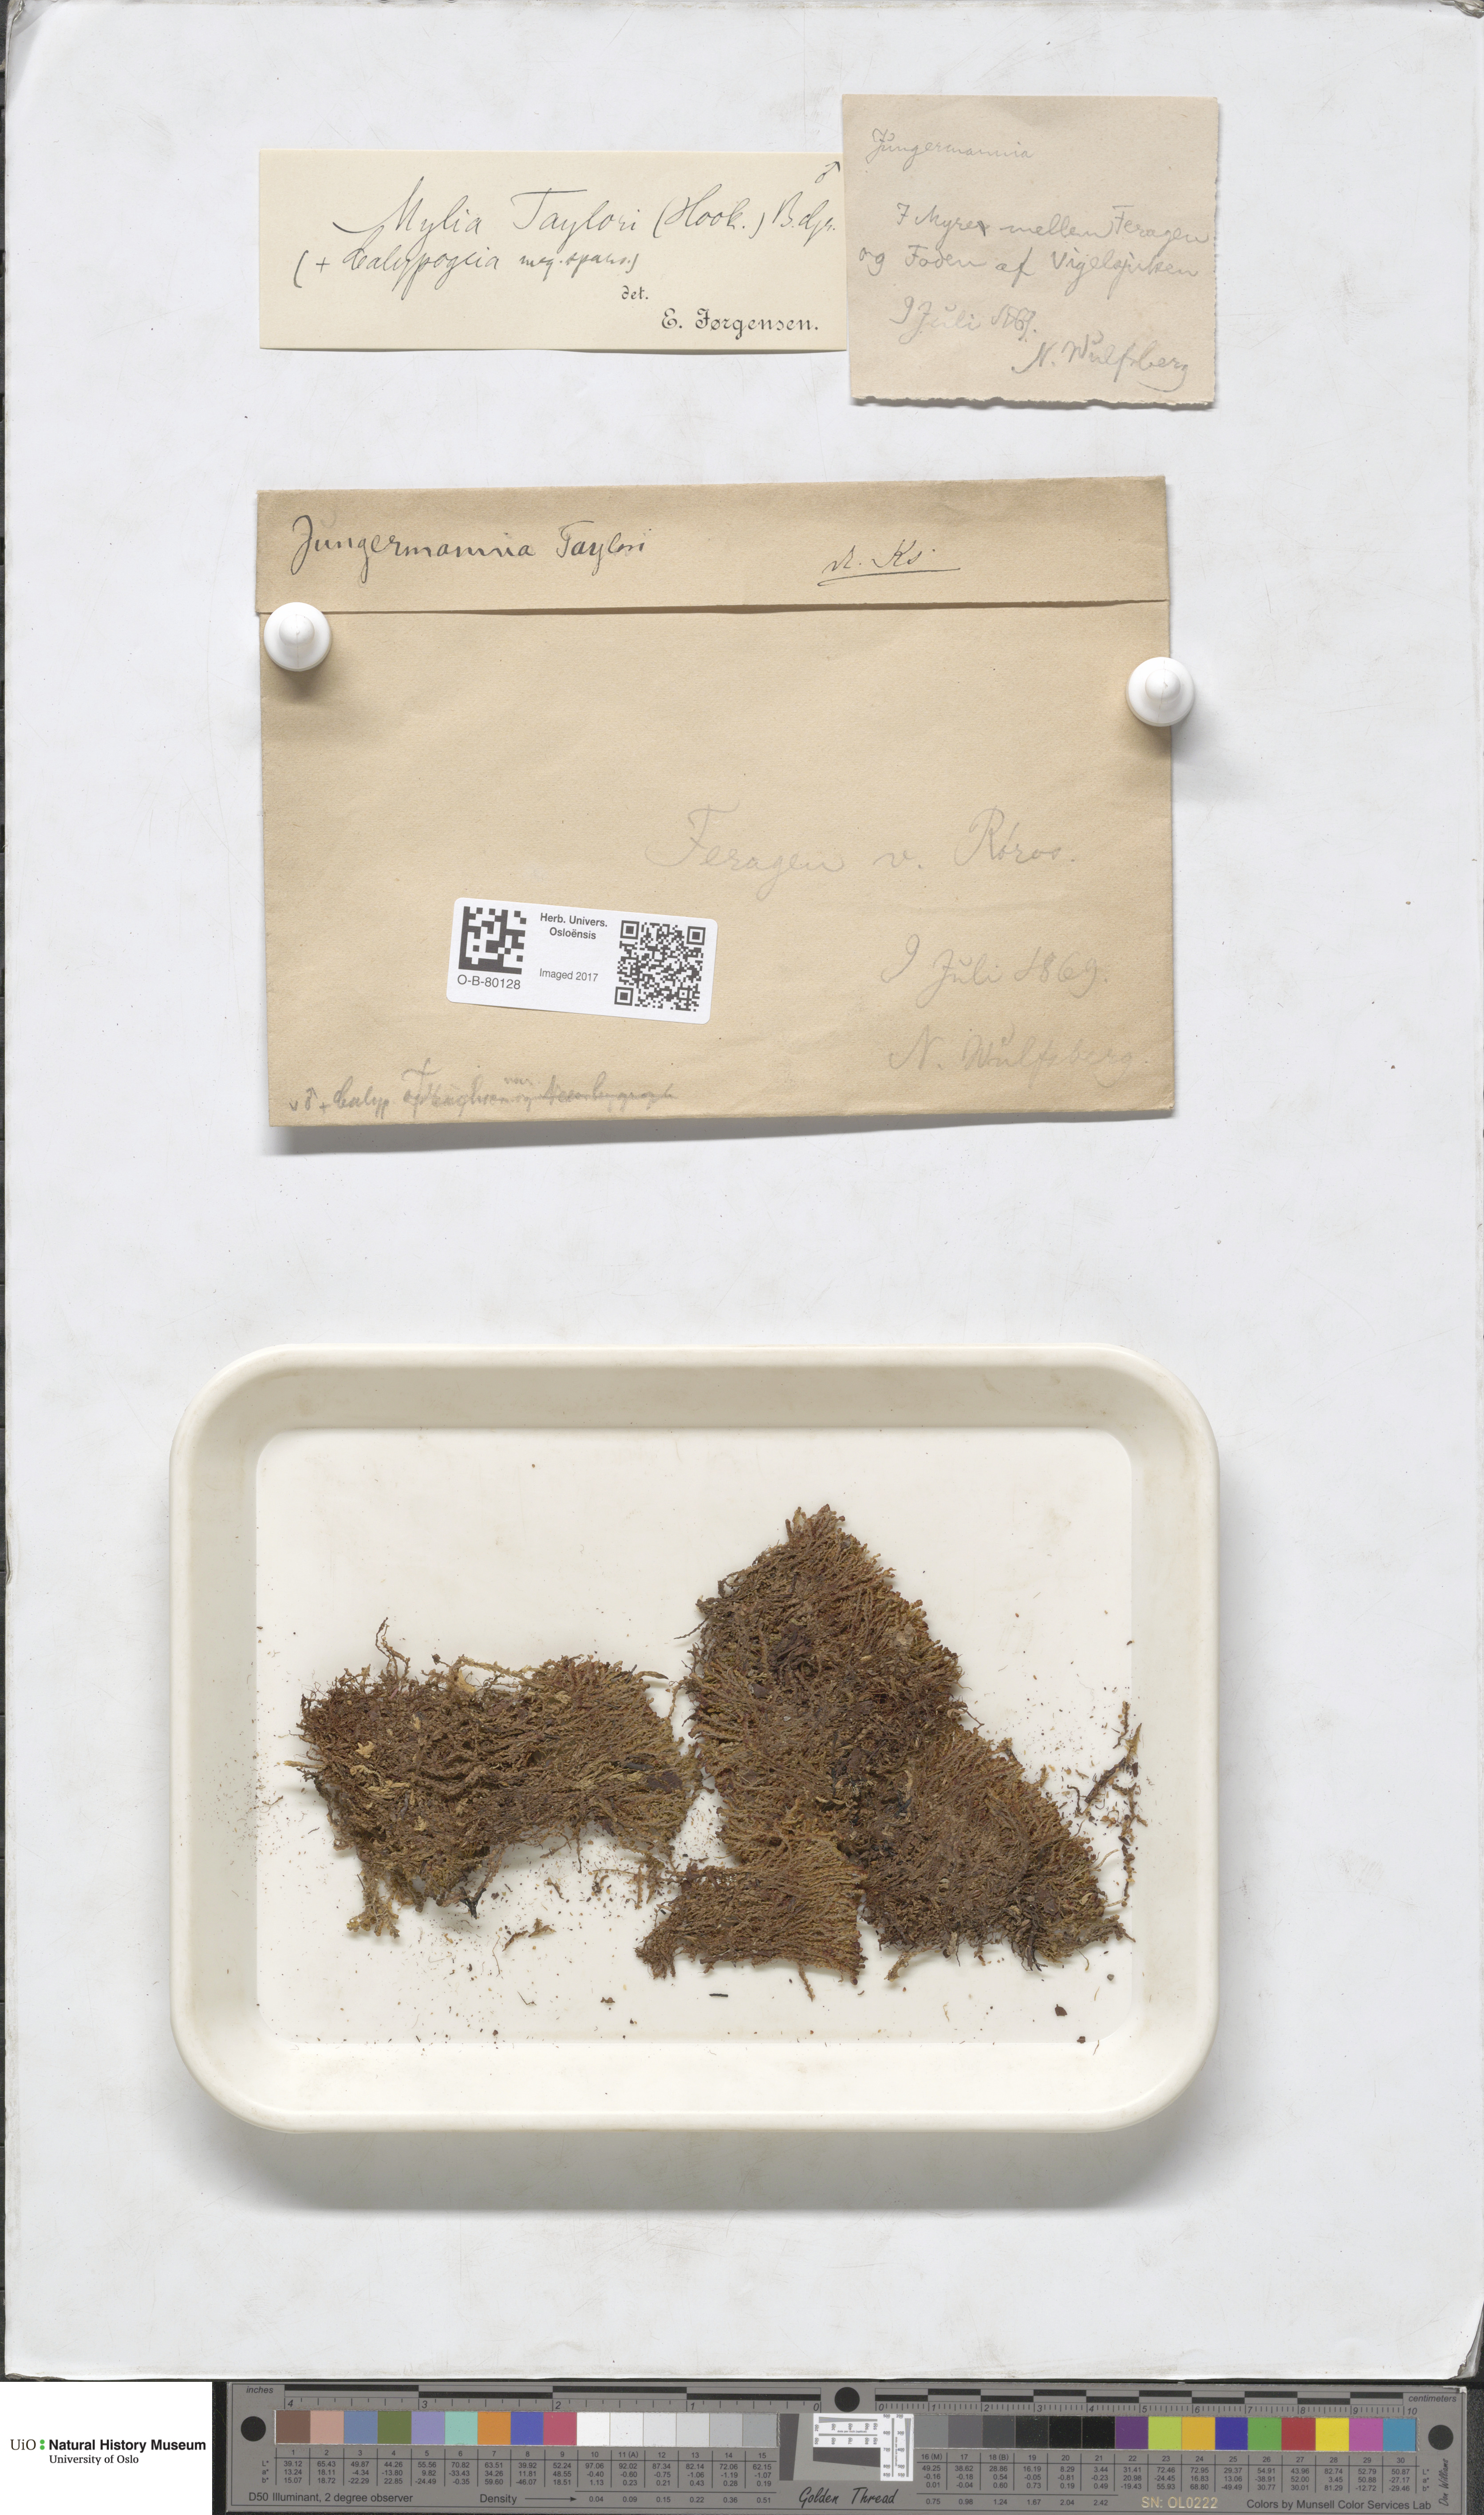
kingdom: Plantae
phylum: Marchantiophyta
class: Jungermanniopsida
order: Jungermanniales
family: Myliaceae
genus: Mylia
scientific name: Mylia taylorii
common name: Taylor s flapwort
